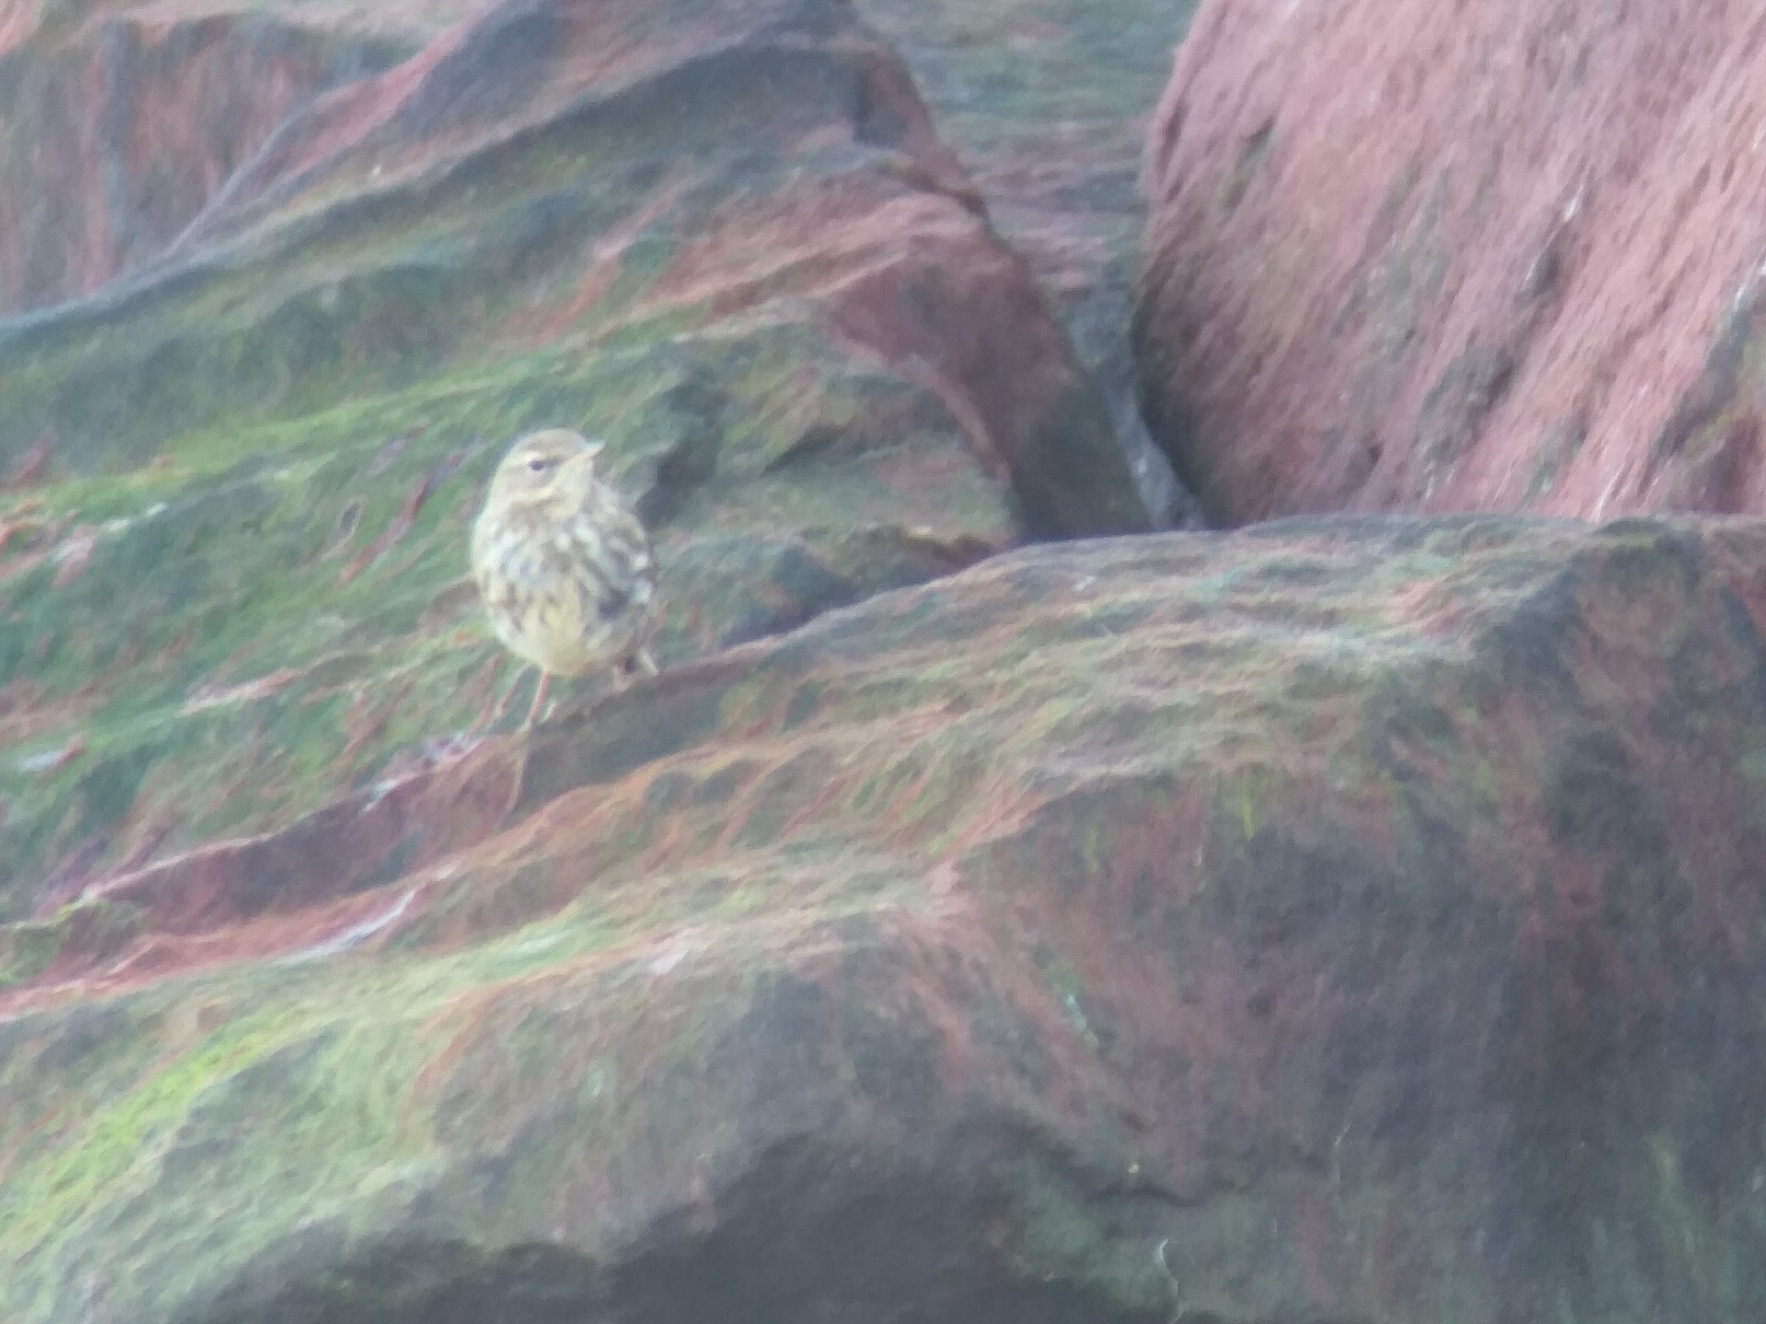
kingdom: Animalia
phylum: Chordata
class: Aves
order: Passeriformes
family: Motacillidae
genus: Anthus
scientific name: Anthus petrosus
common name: Skærpiber
